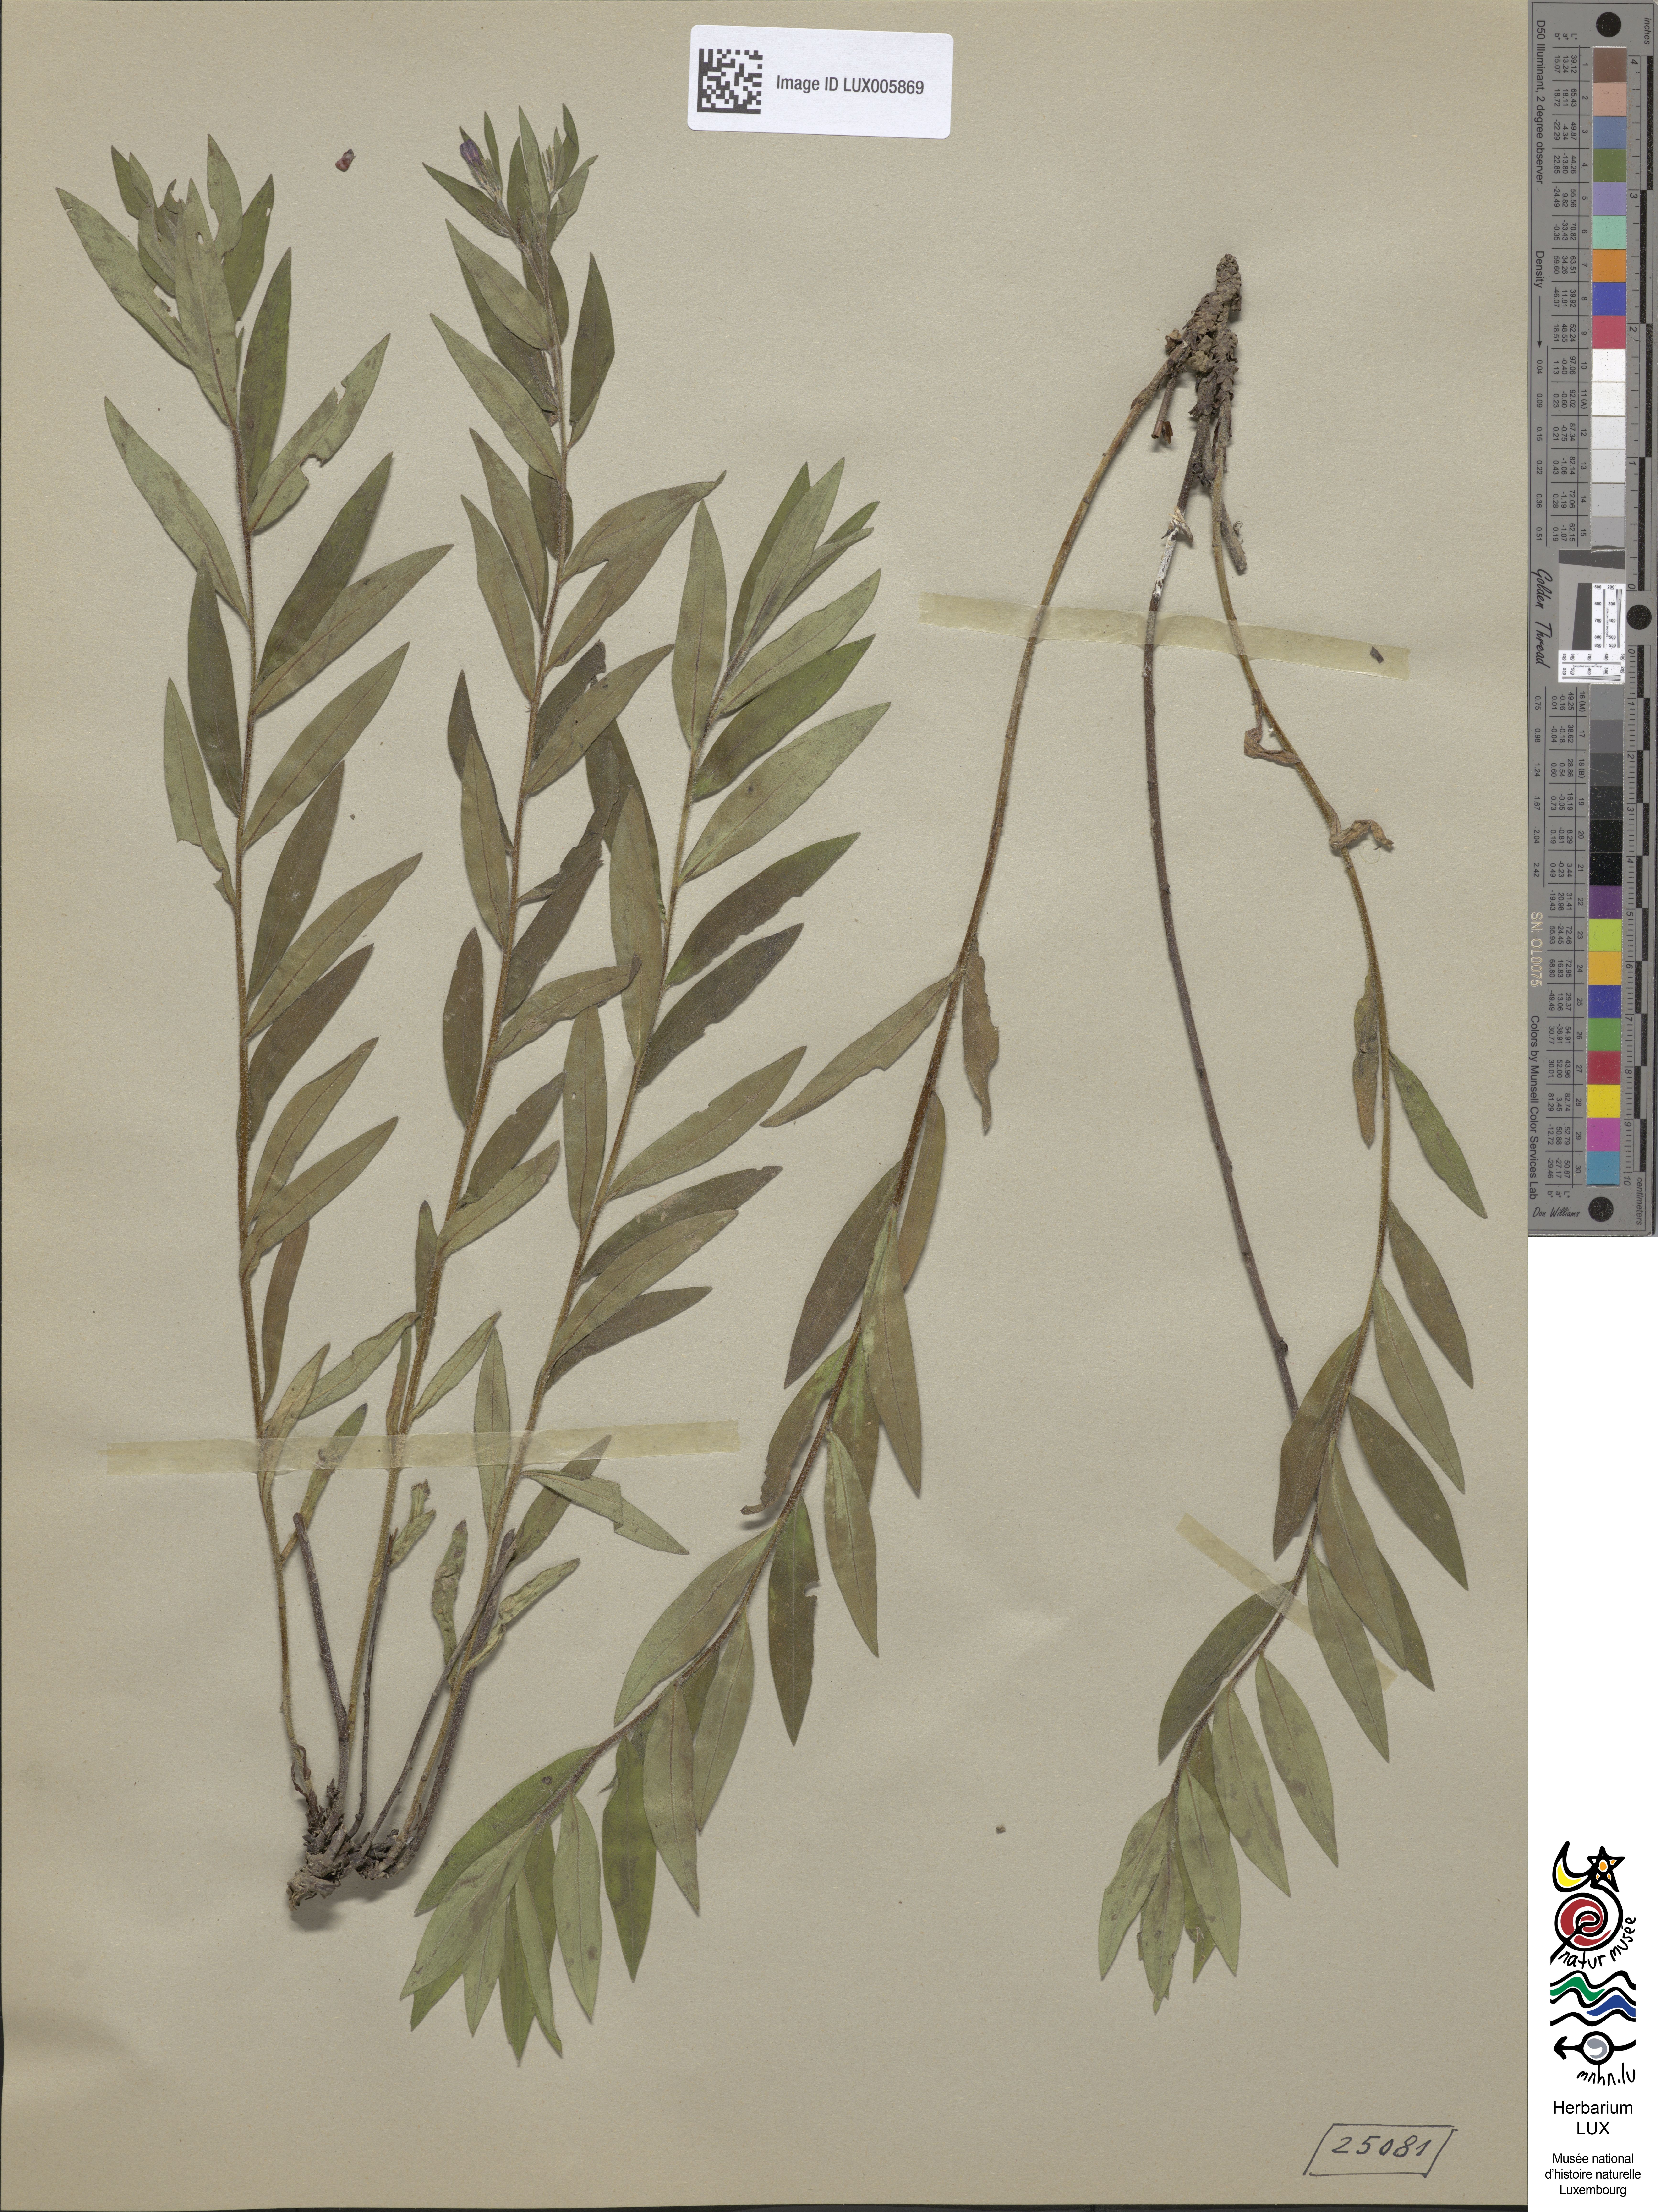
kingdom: Plantae
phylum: Tracheophyta
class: Magnoliopsida
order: Boraginales
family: Boraginaceae
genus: Aegonychon
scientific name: Aegonychon purpurocaeruleum
